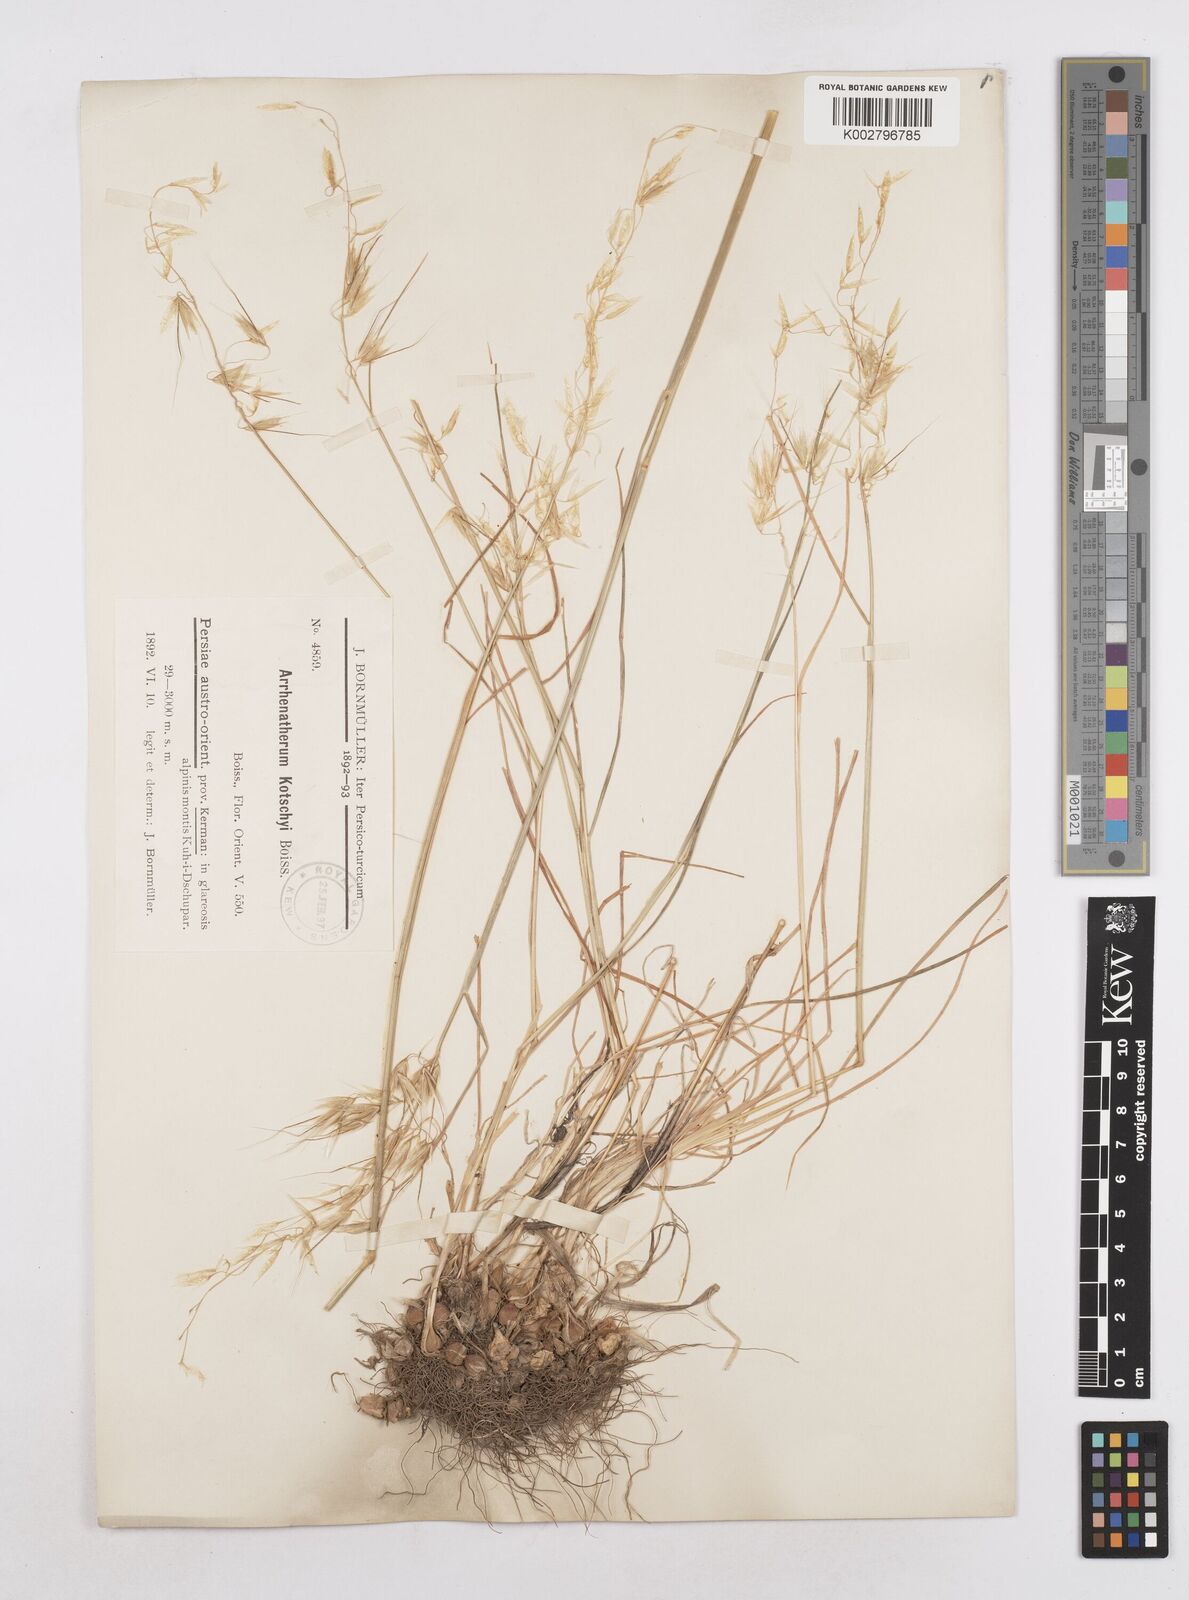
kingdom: Plantae
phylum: Tracheophyta
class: Liliopsida
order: Poales
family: Poaceae
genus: Arrhenatherum
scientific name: Arrhenatherum kotschyi
